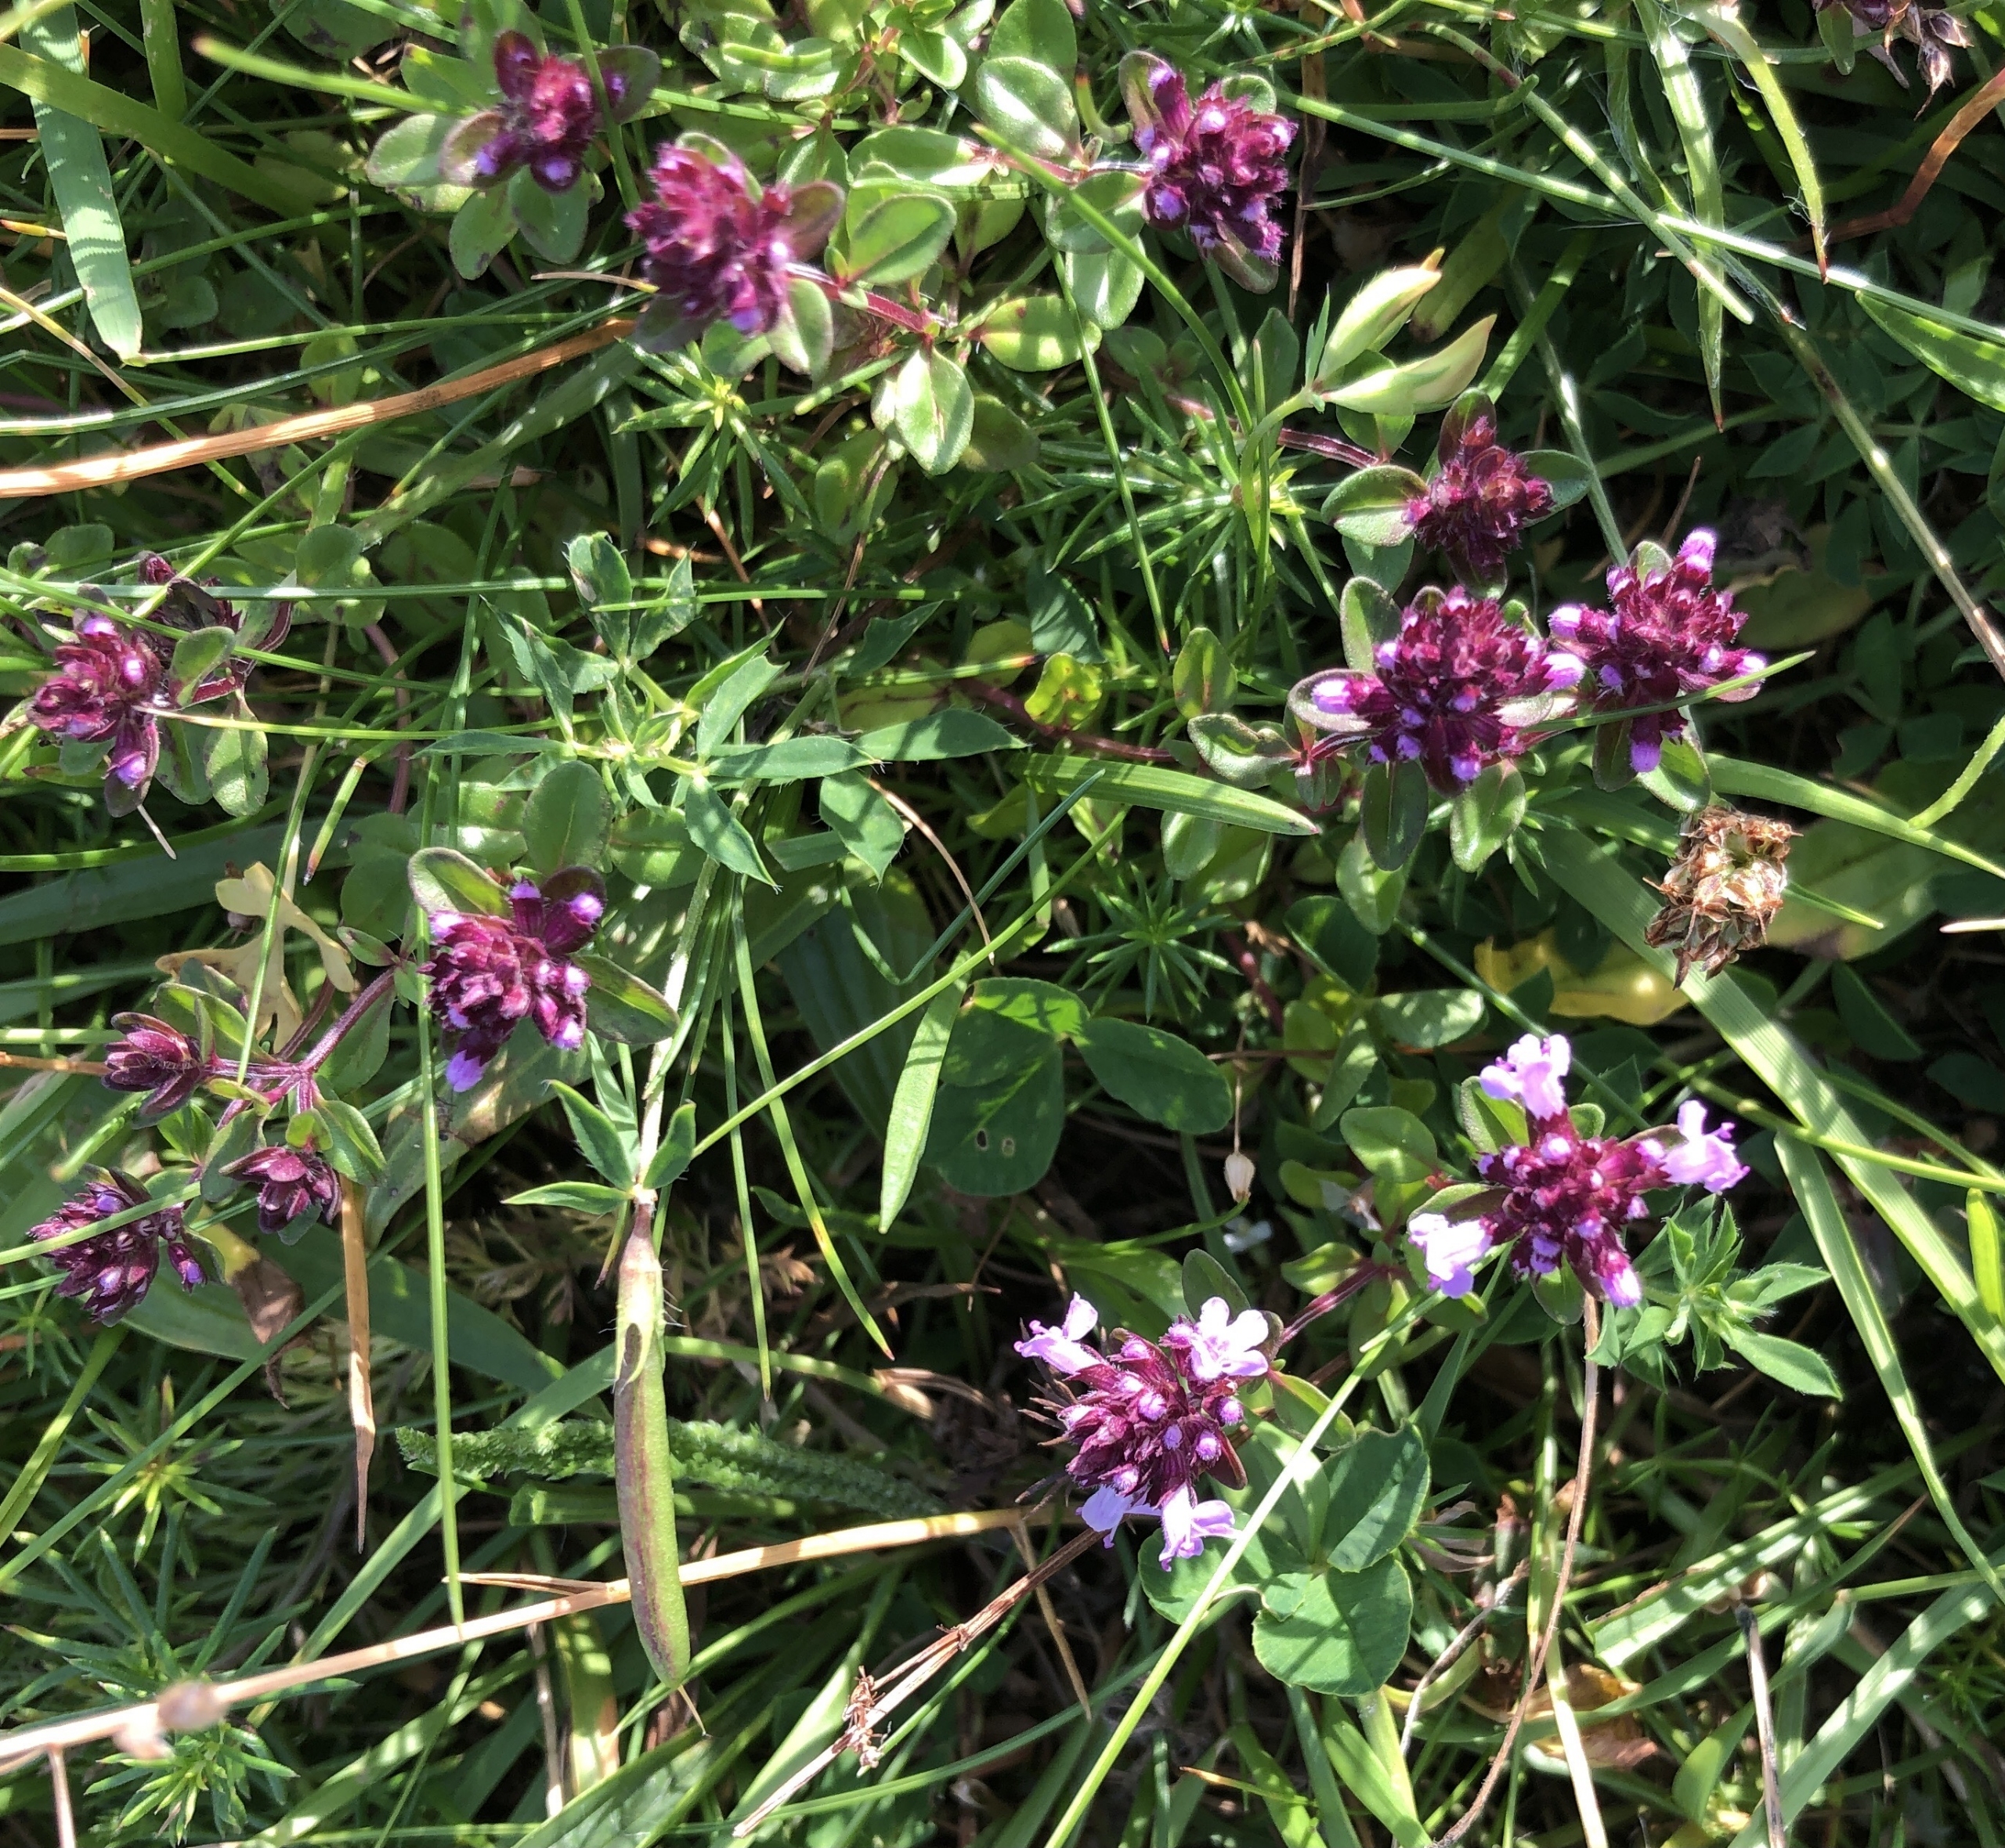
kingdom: Plantae
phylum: Tracheophyta
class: Magnoliopsida
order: Lamiales
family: Lamiaceae
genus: Thymus
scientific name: Thymus pulegioides
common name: Bredbladet timian
